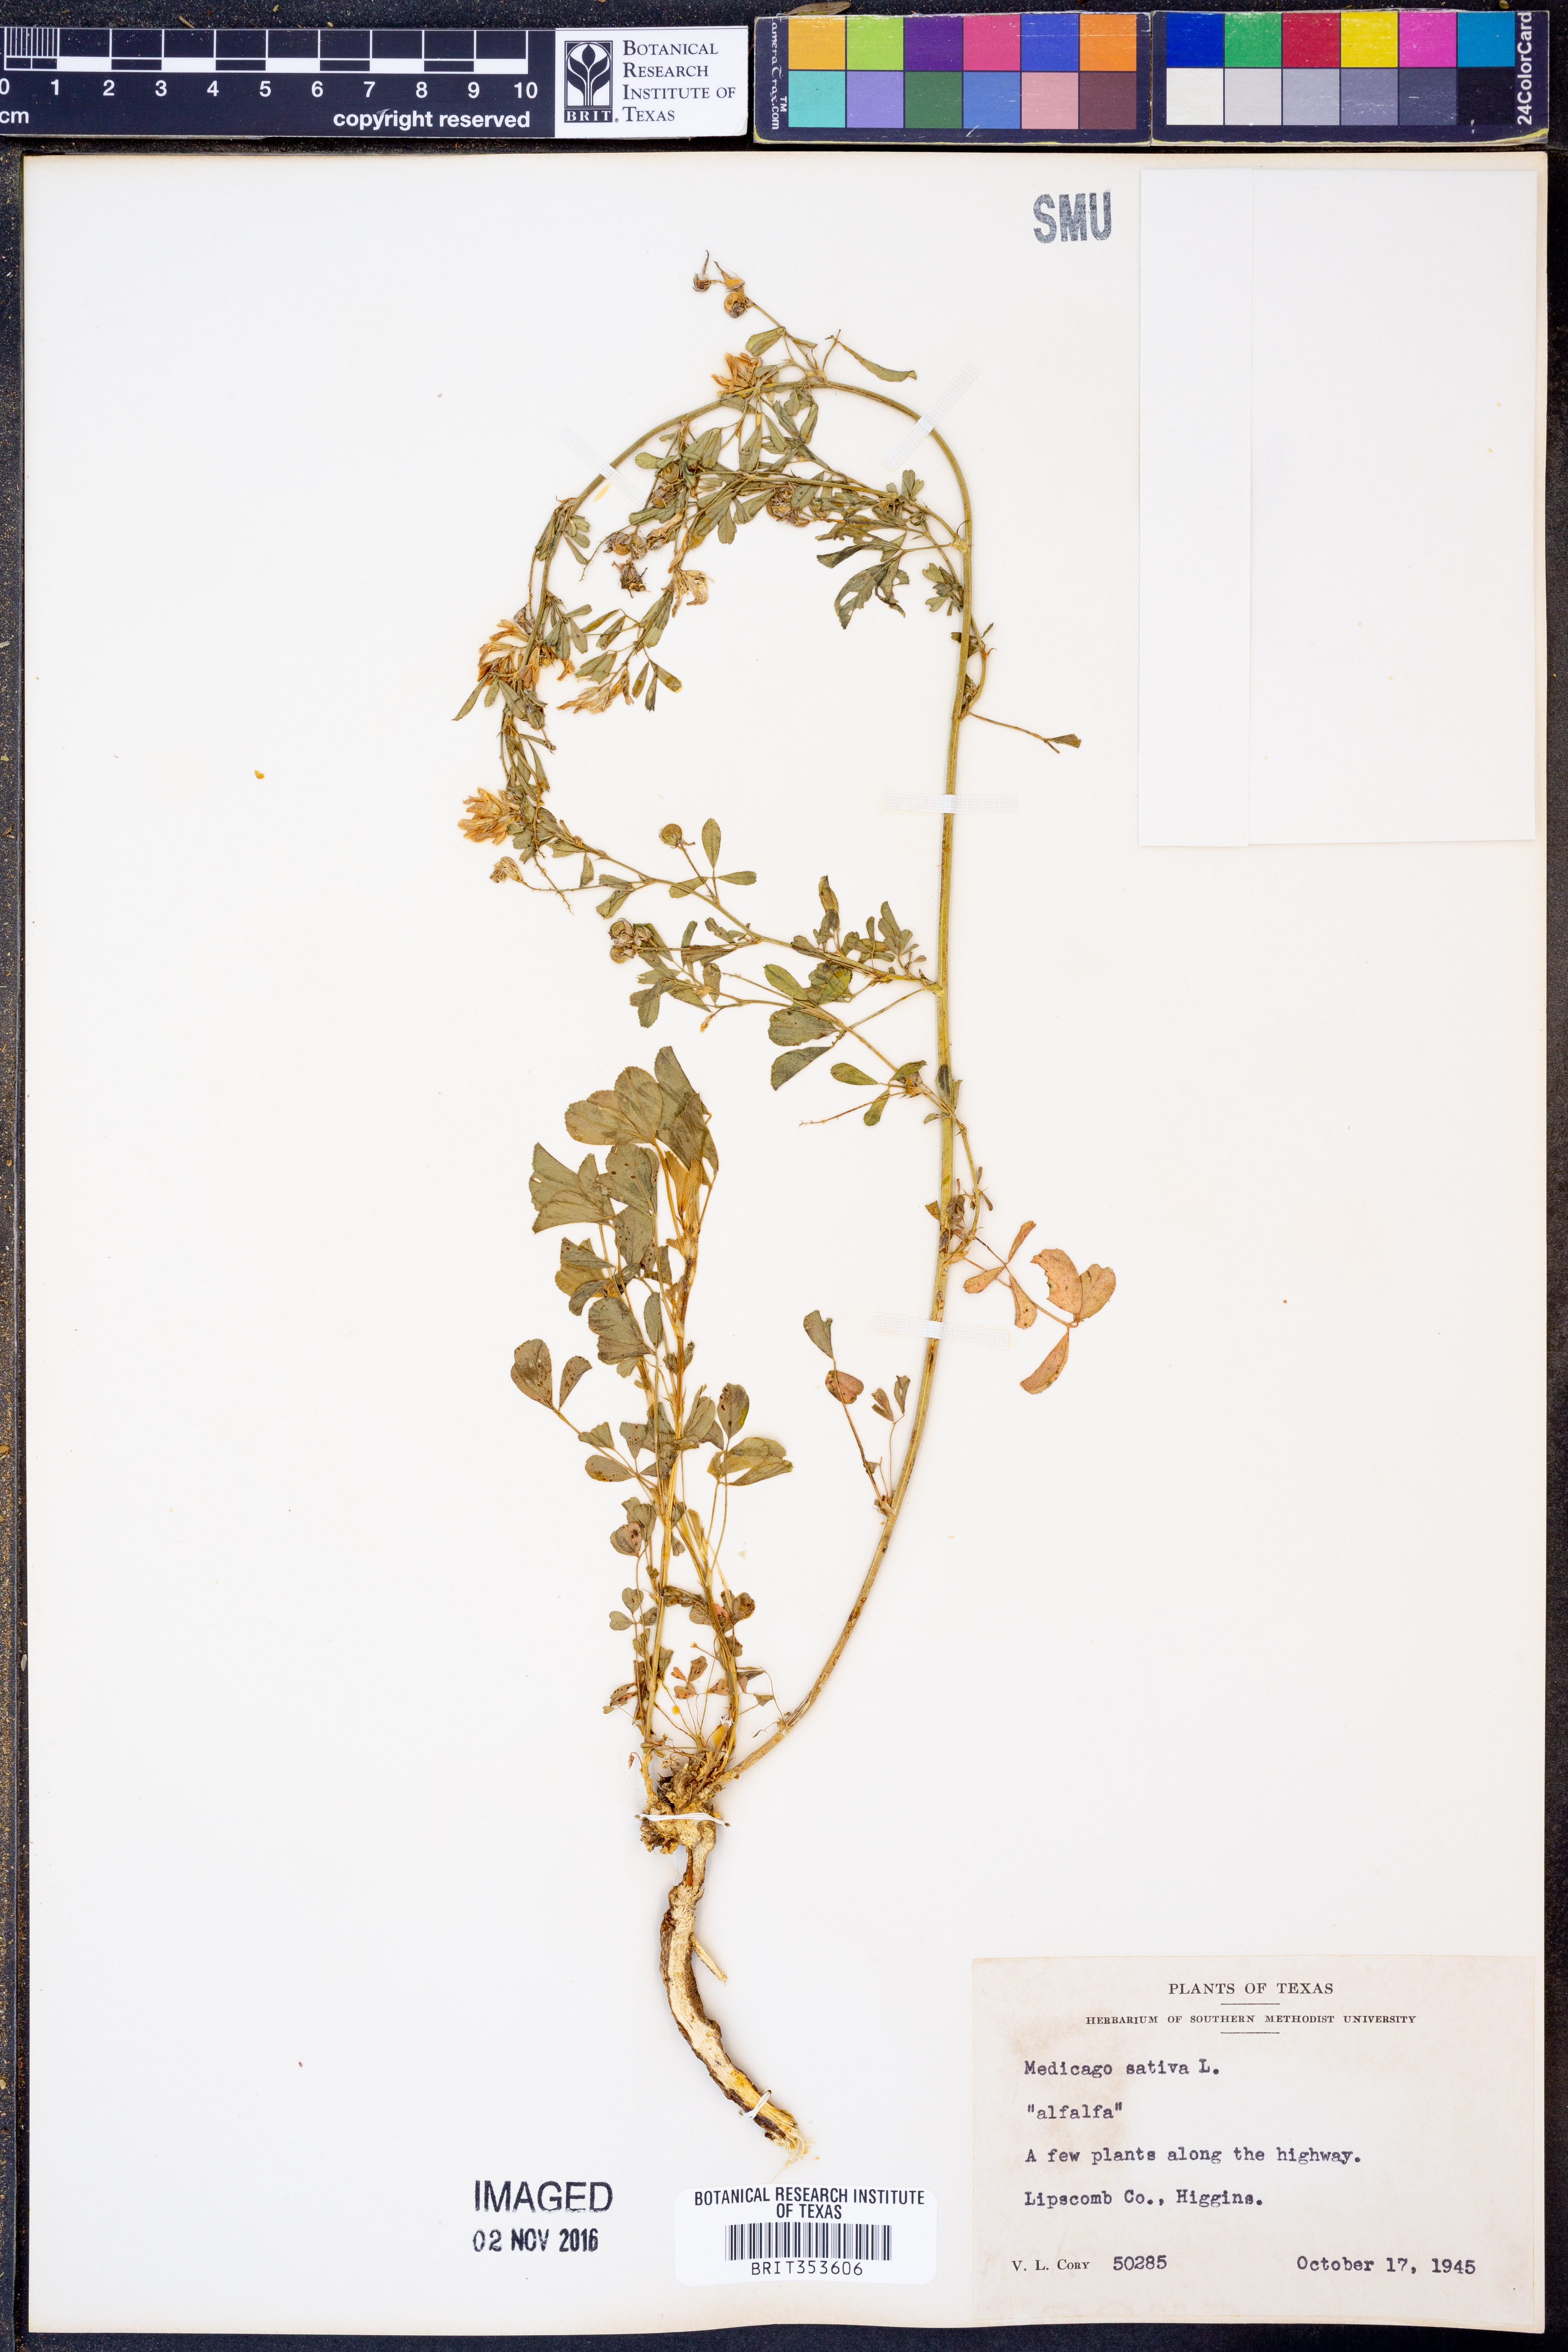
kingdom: Plantae
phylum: Tracheophyta
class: Magnoliopsida
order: Fabales
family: Fabaceae
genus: Medicago
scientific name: Medicago sativa
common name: Alfalfa
